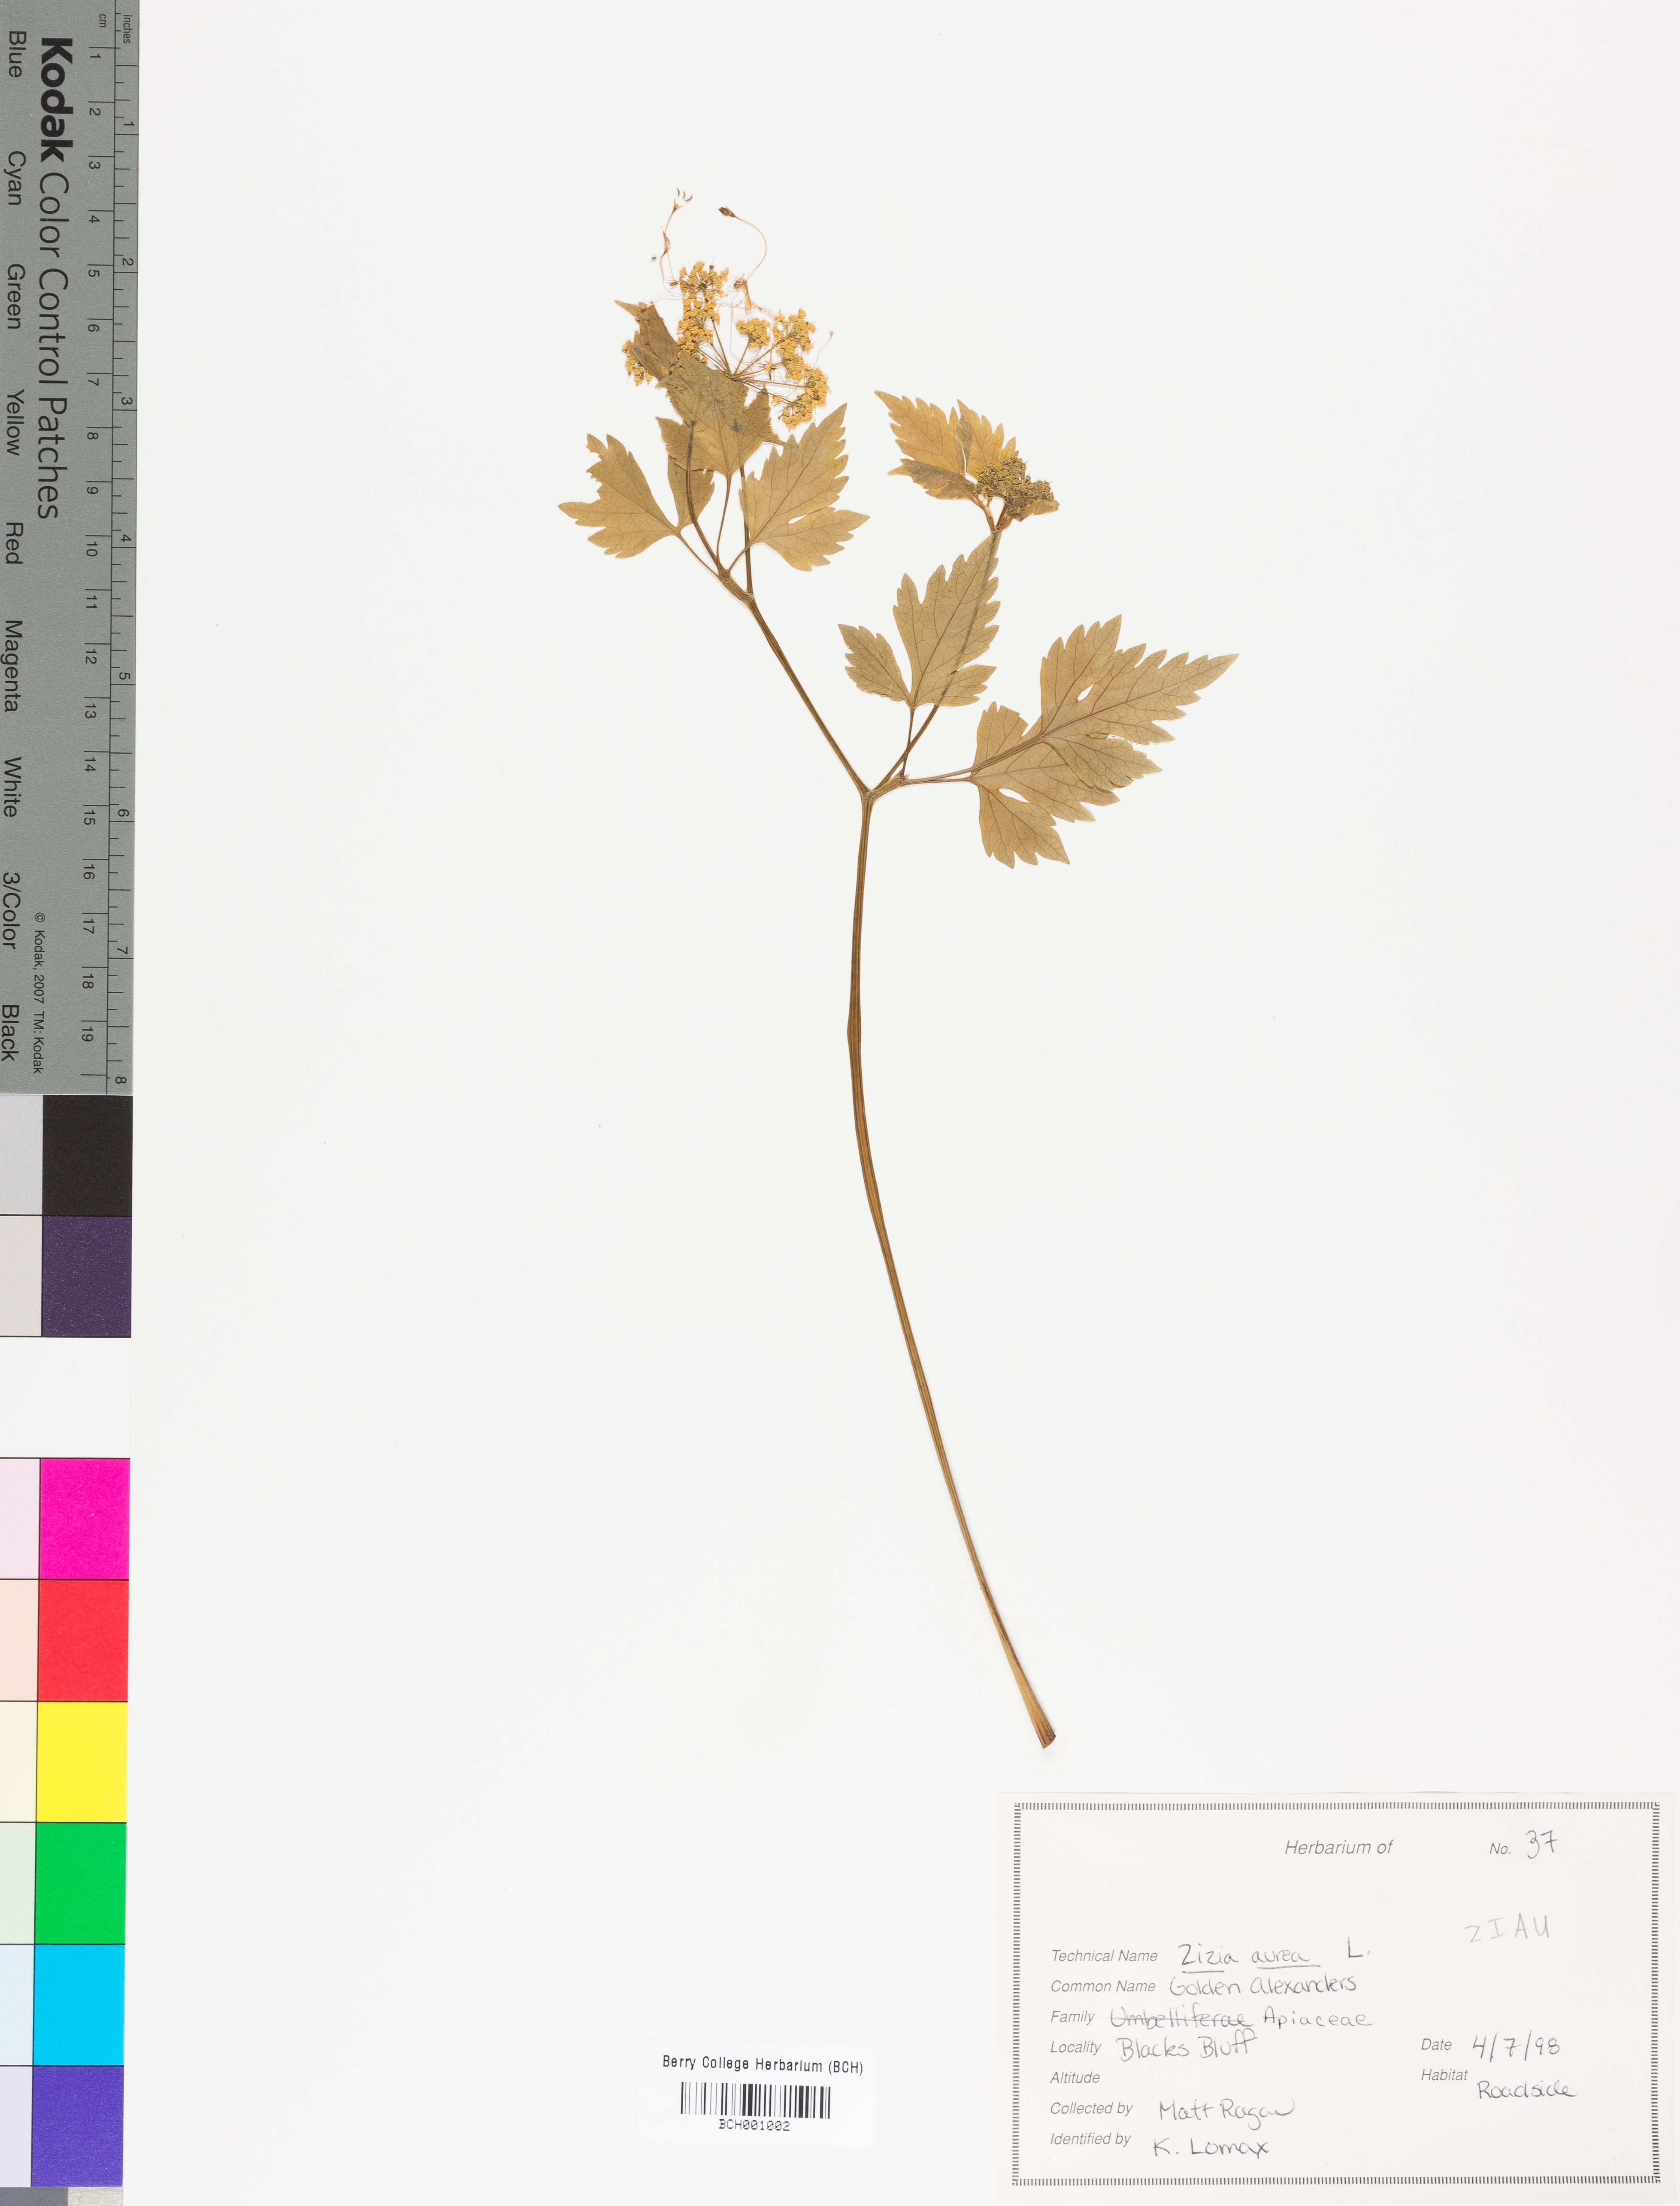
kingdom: Plantae
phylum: Tracheophyta
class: Magnoliopsida
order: Apiales
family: Apiaceae
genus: Zizia
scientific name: Zizia aurea
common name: Golden alexanders
